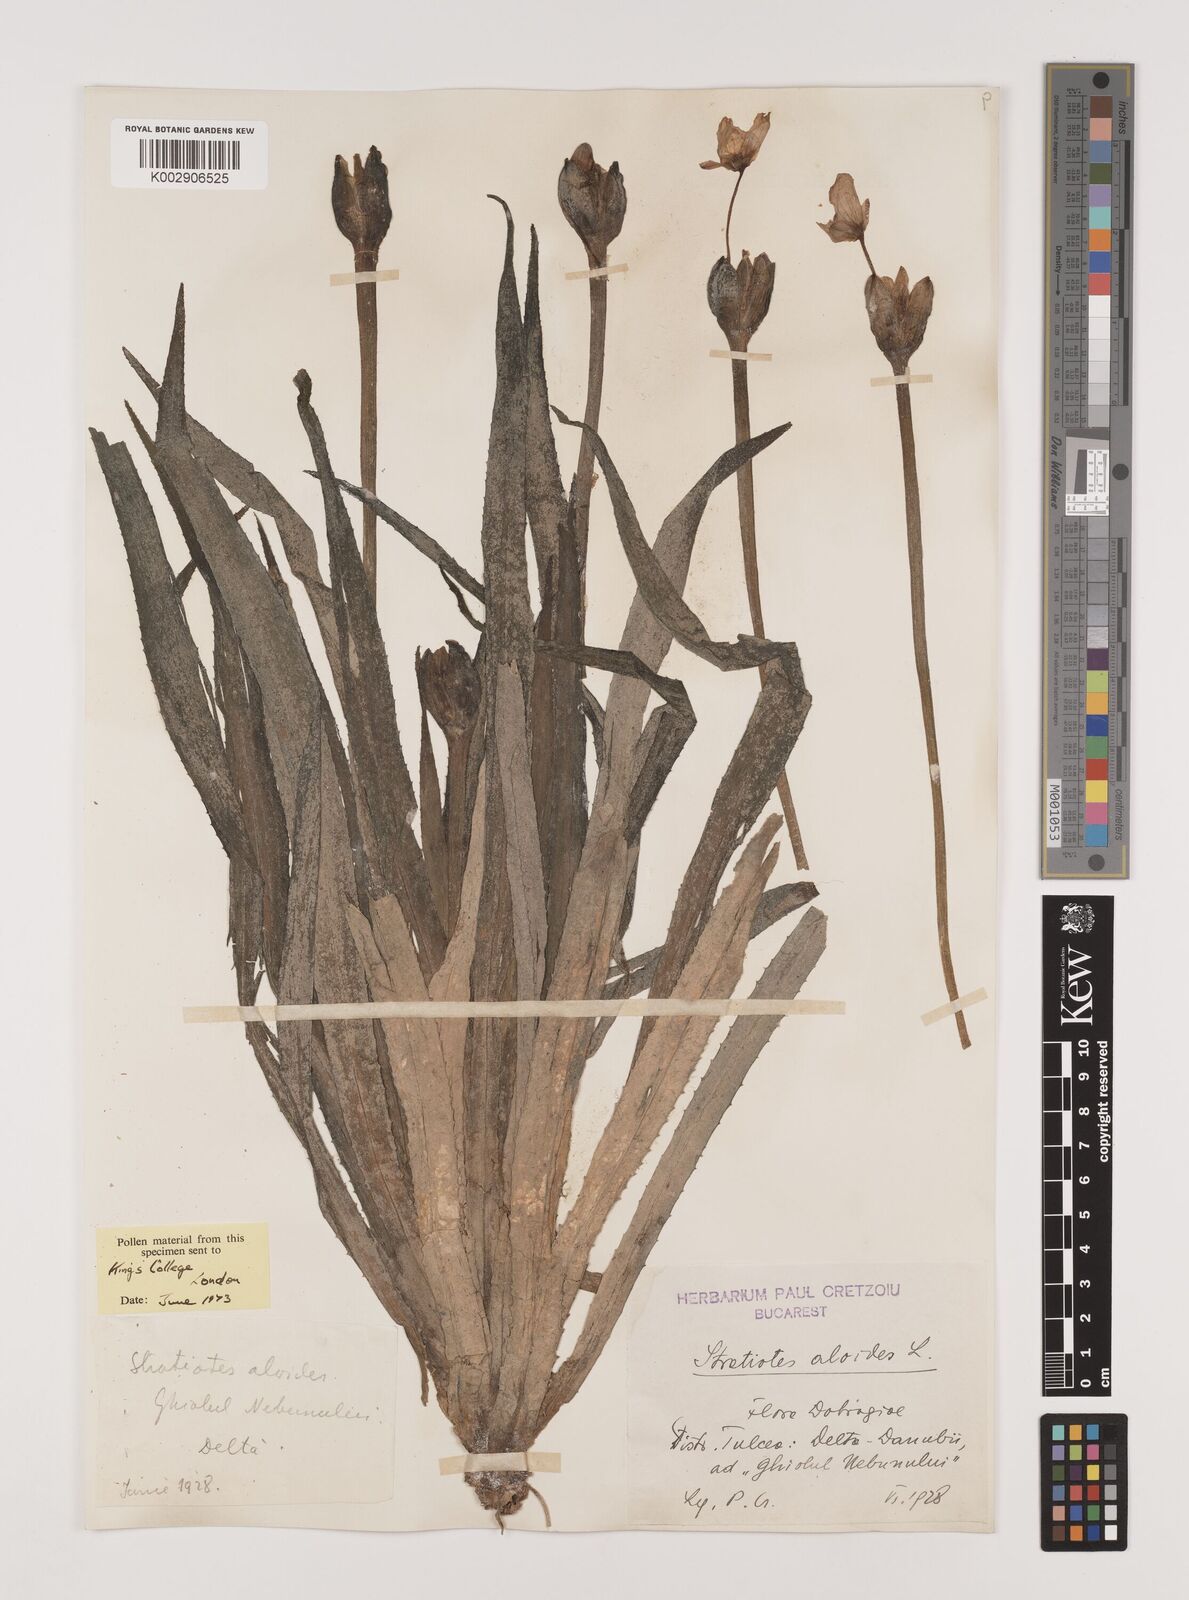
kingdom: Plantae
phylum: Tracheophyta
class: Liliopsida
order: Alismatales
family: Hydrocharitaceae
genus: Stratiotes
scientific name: Stratiotes aloides
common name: Water-soldier
